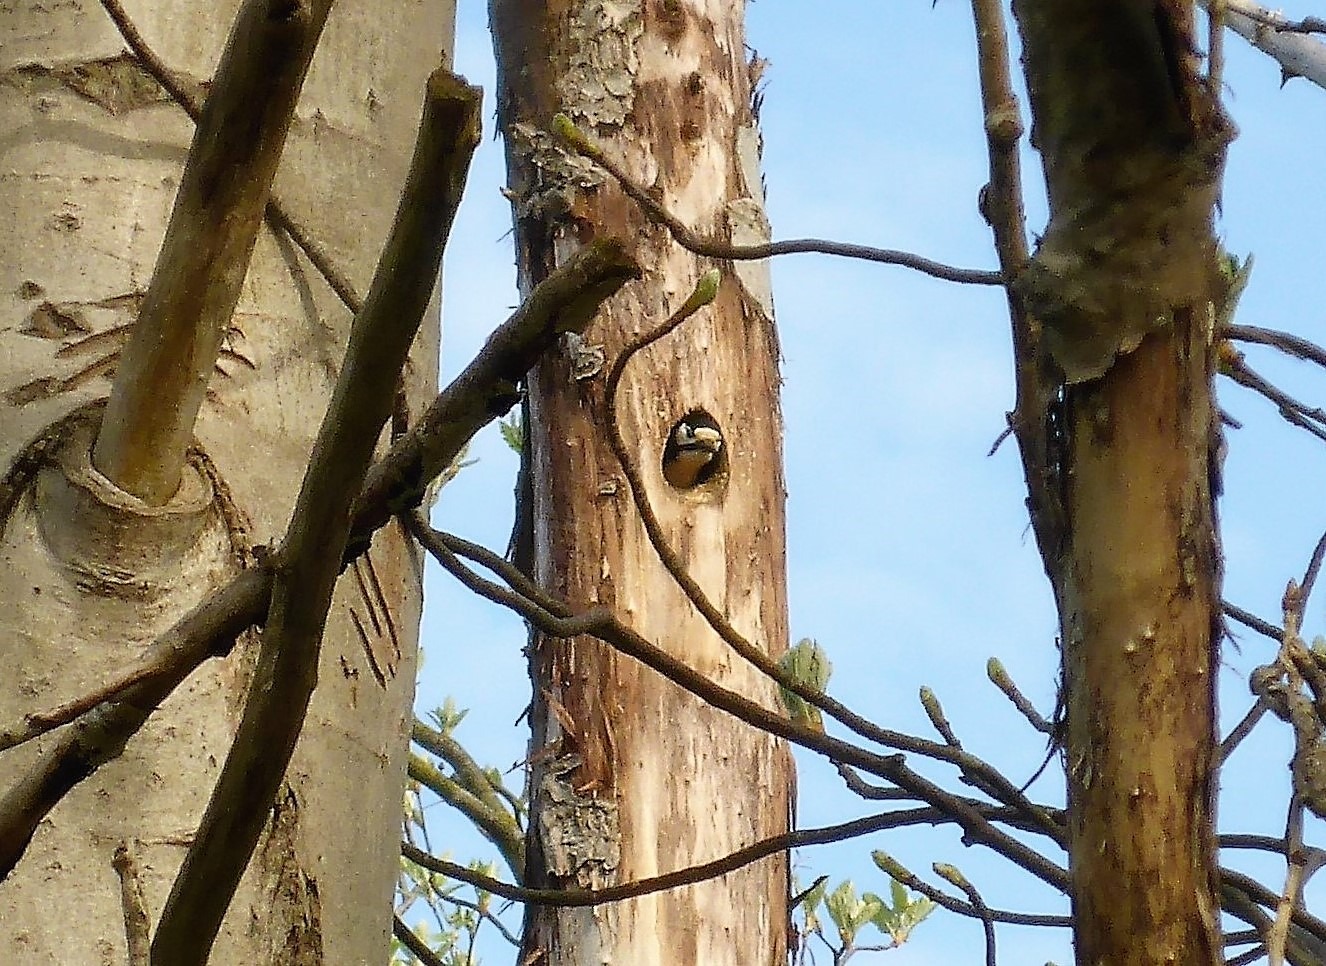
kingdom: Animalia
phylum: Chordata
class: Aves
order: Piciformes
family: Picidae
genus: Dendrocopos
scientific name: Dendrocopos major
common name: Stor flagspætte
